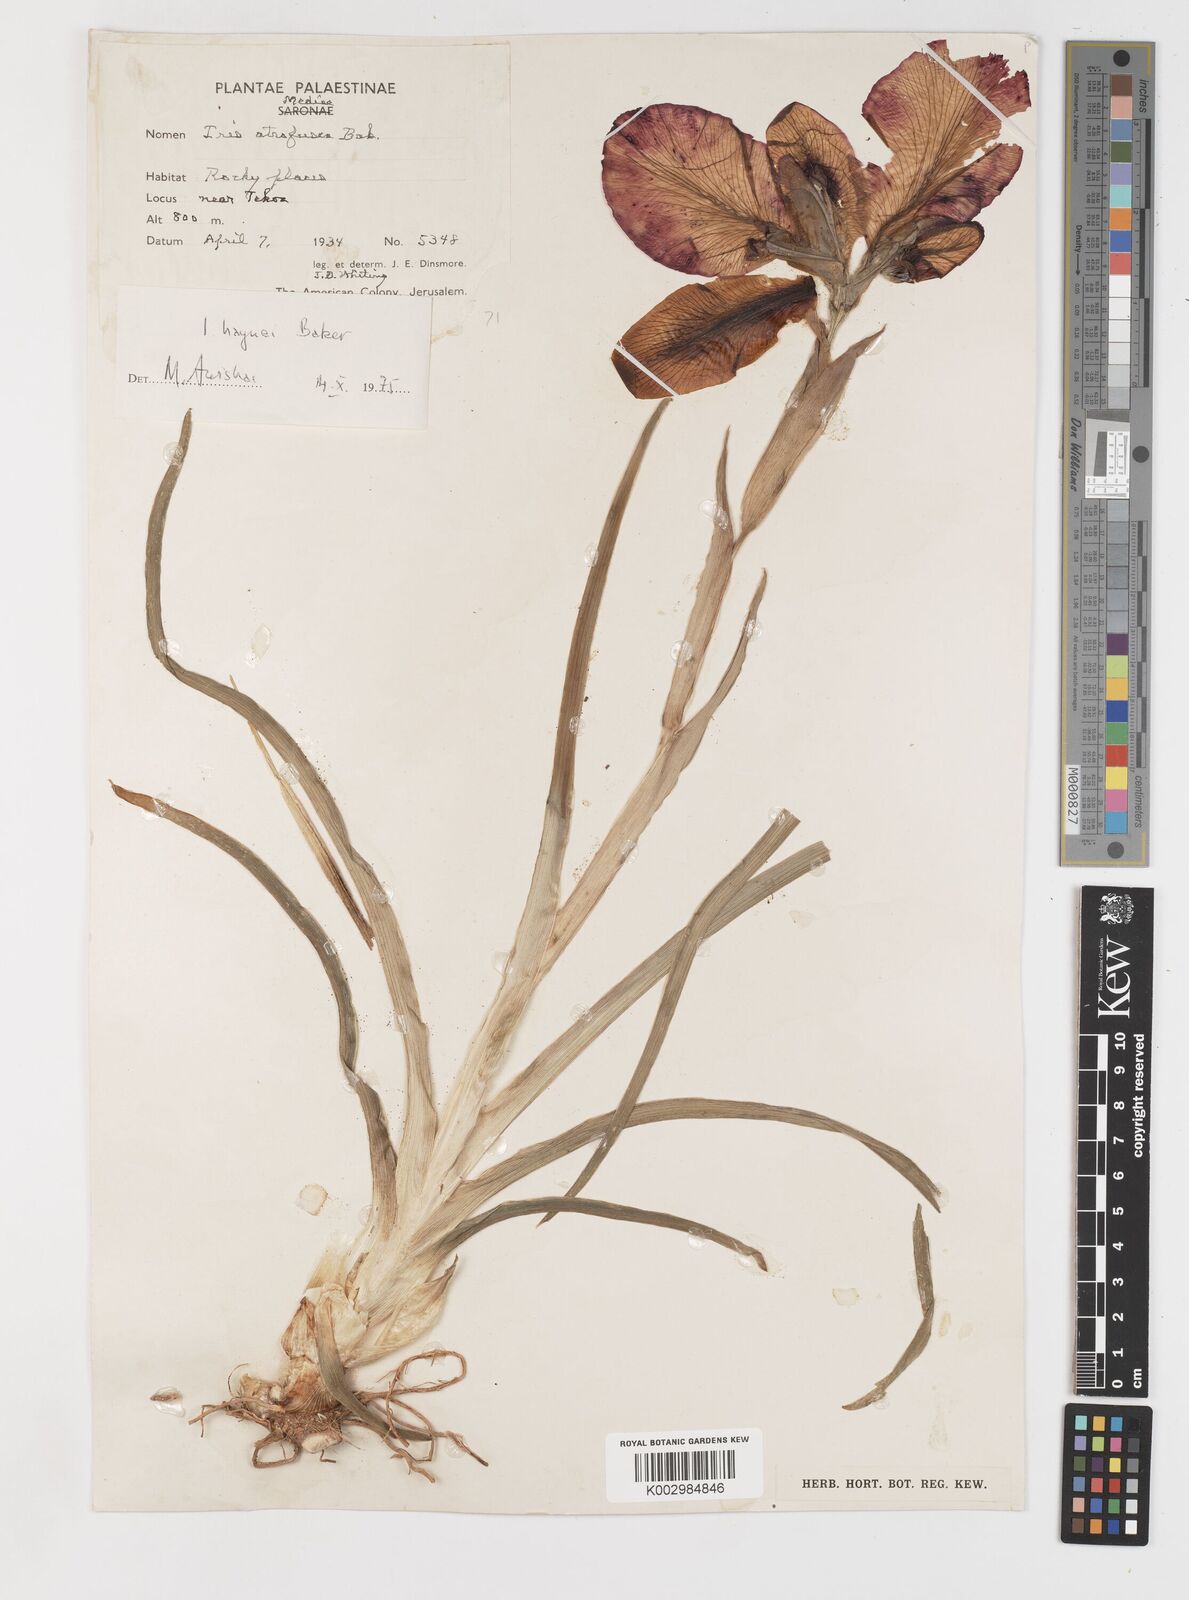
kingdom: Plantae
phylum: Tracheophyta
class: Liliopsida
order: Asparagales
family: Iridaceae
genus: Iris
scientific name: Iris atrofusca
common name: Asshafa iris
